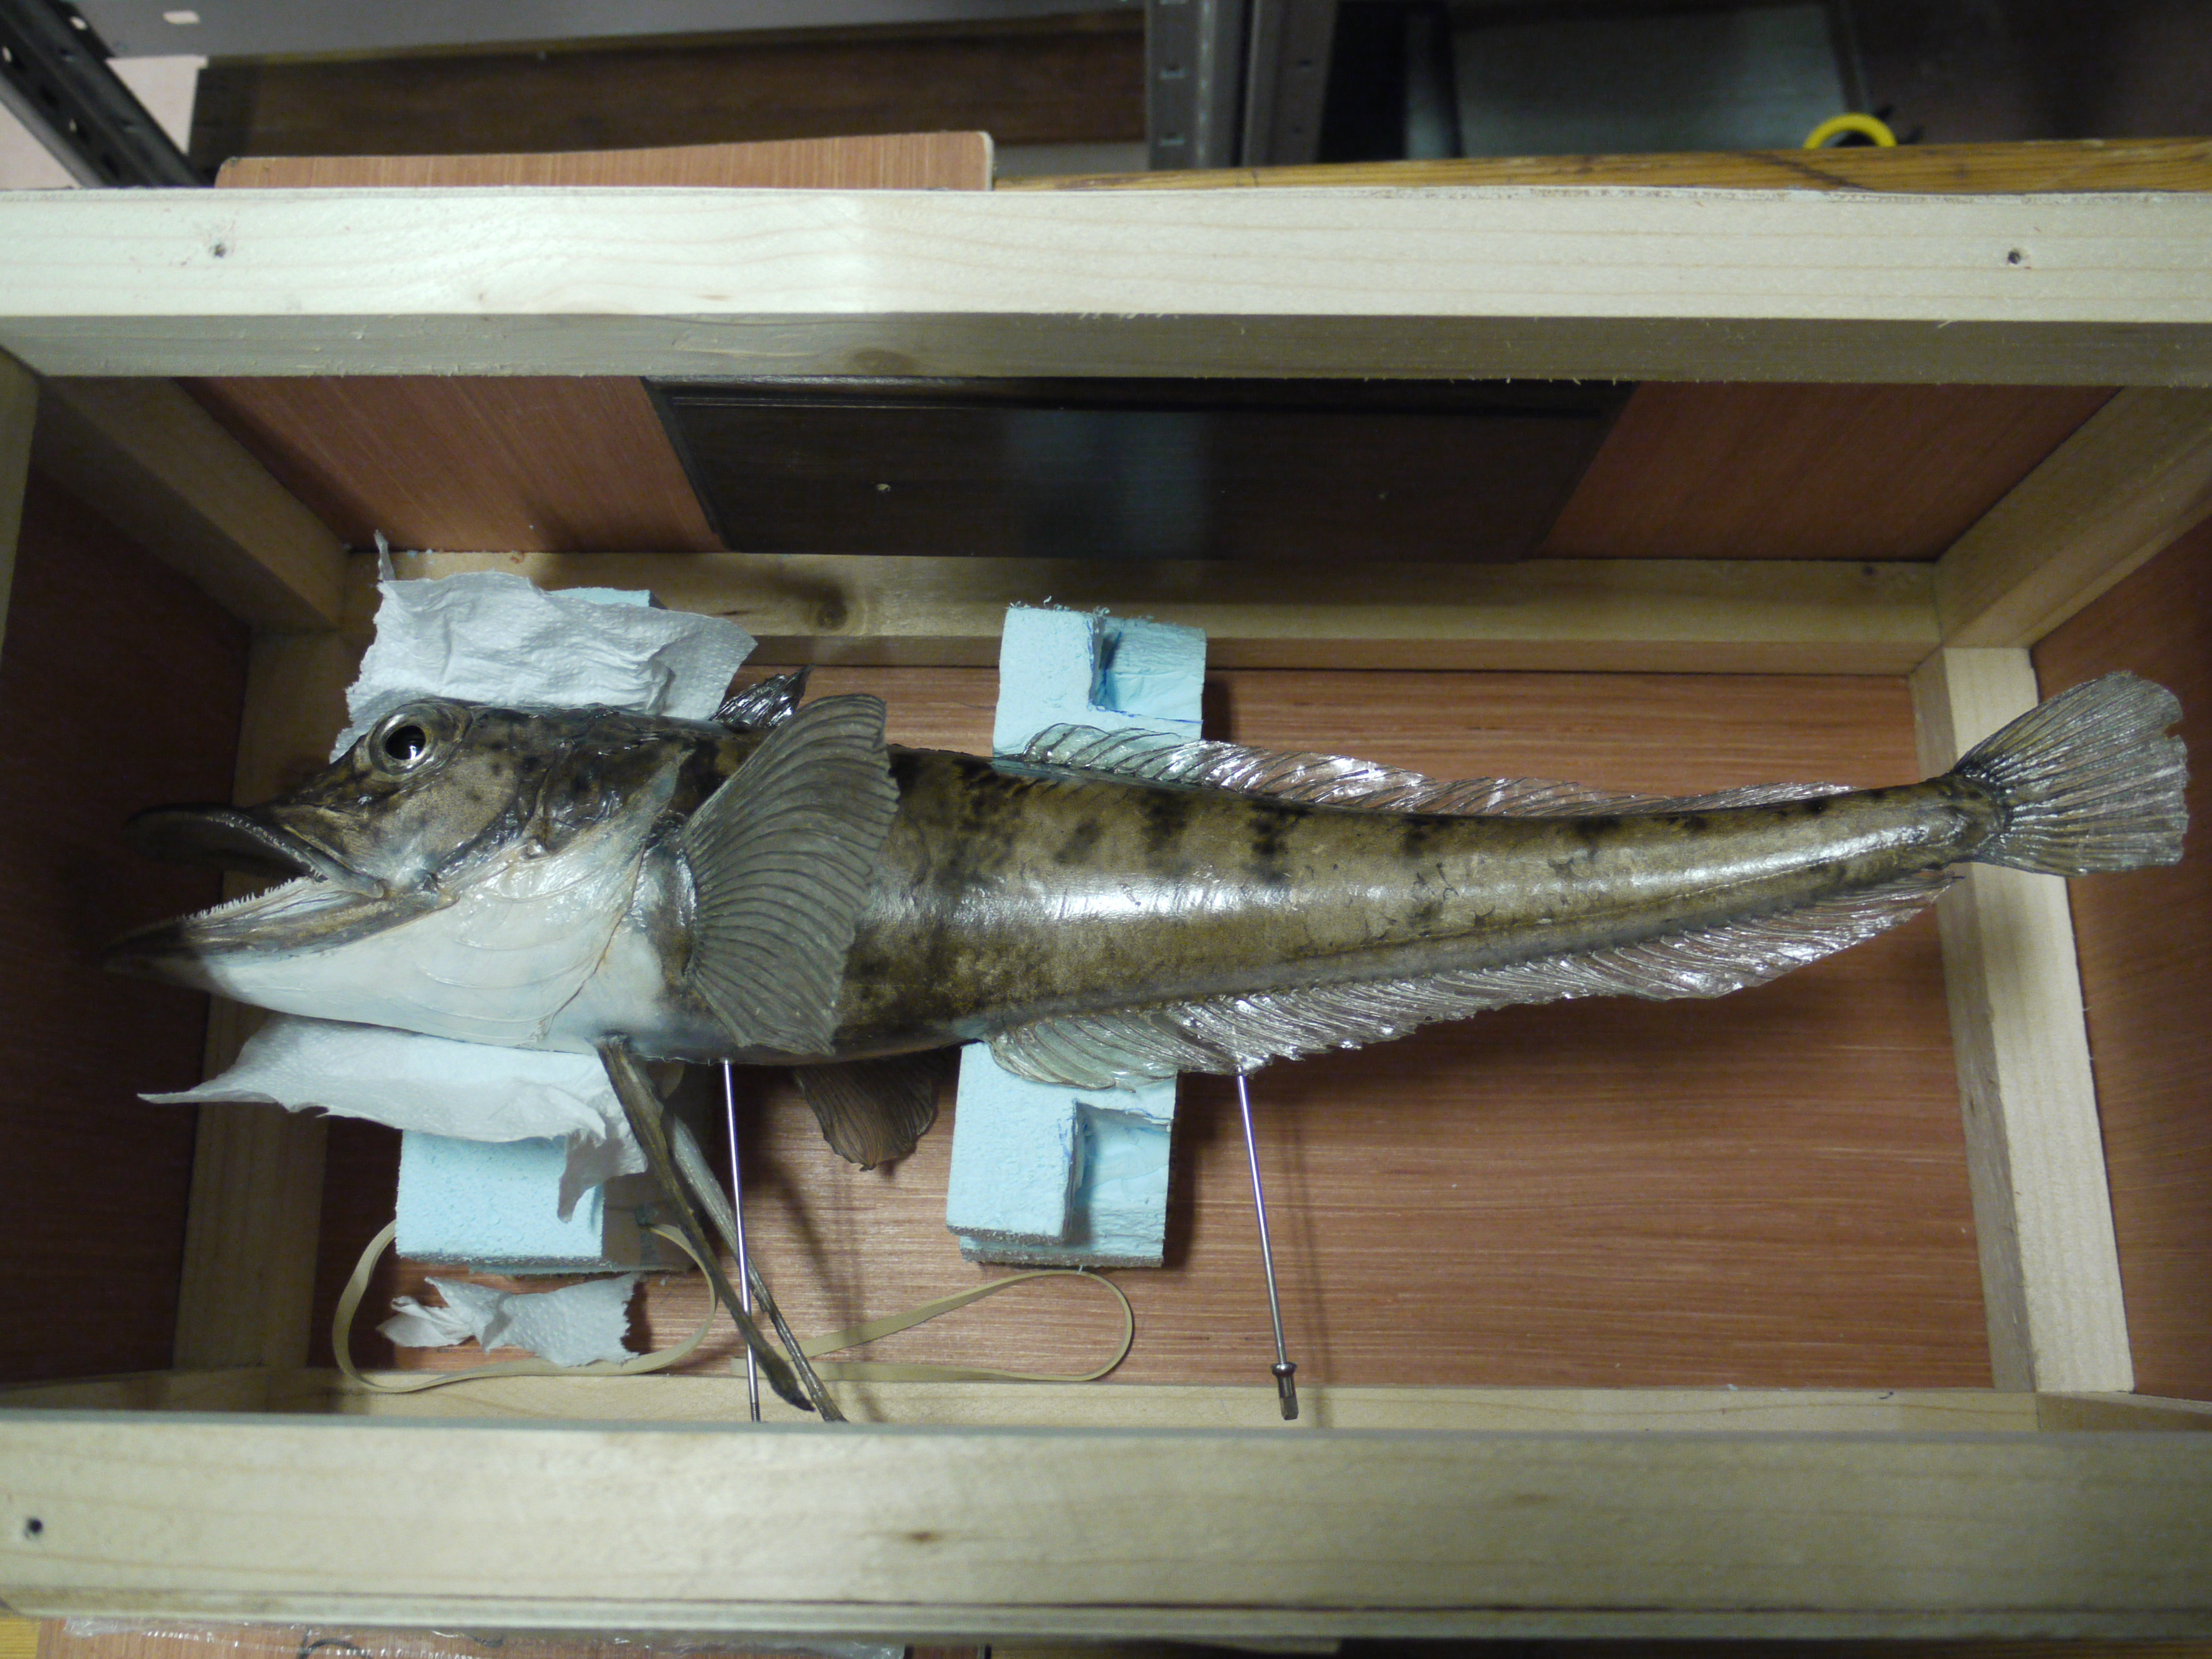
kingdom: Animalia
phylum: Chordata
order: Perciformes
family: Channichthyidae
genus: Chionodraco
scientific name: Chionodraco rastrospinosus
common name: Ocellated icefish
